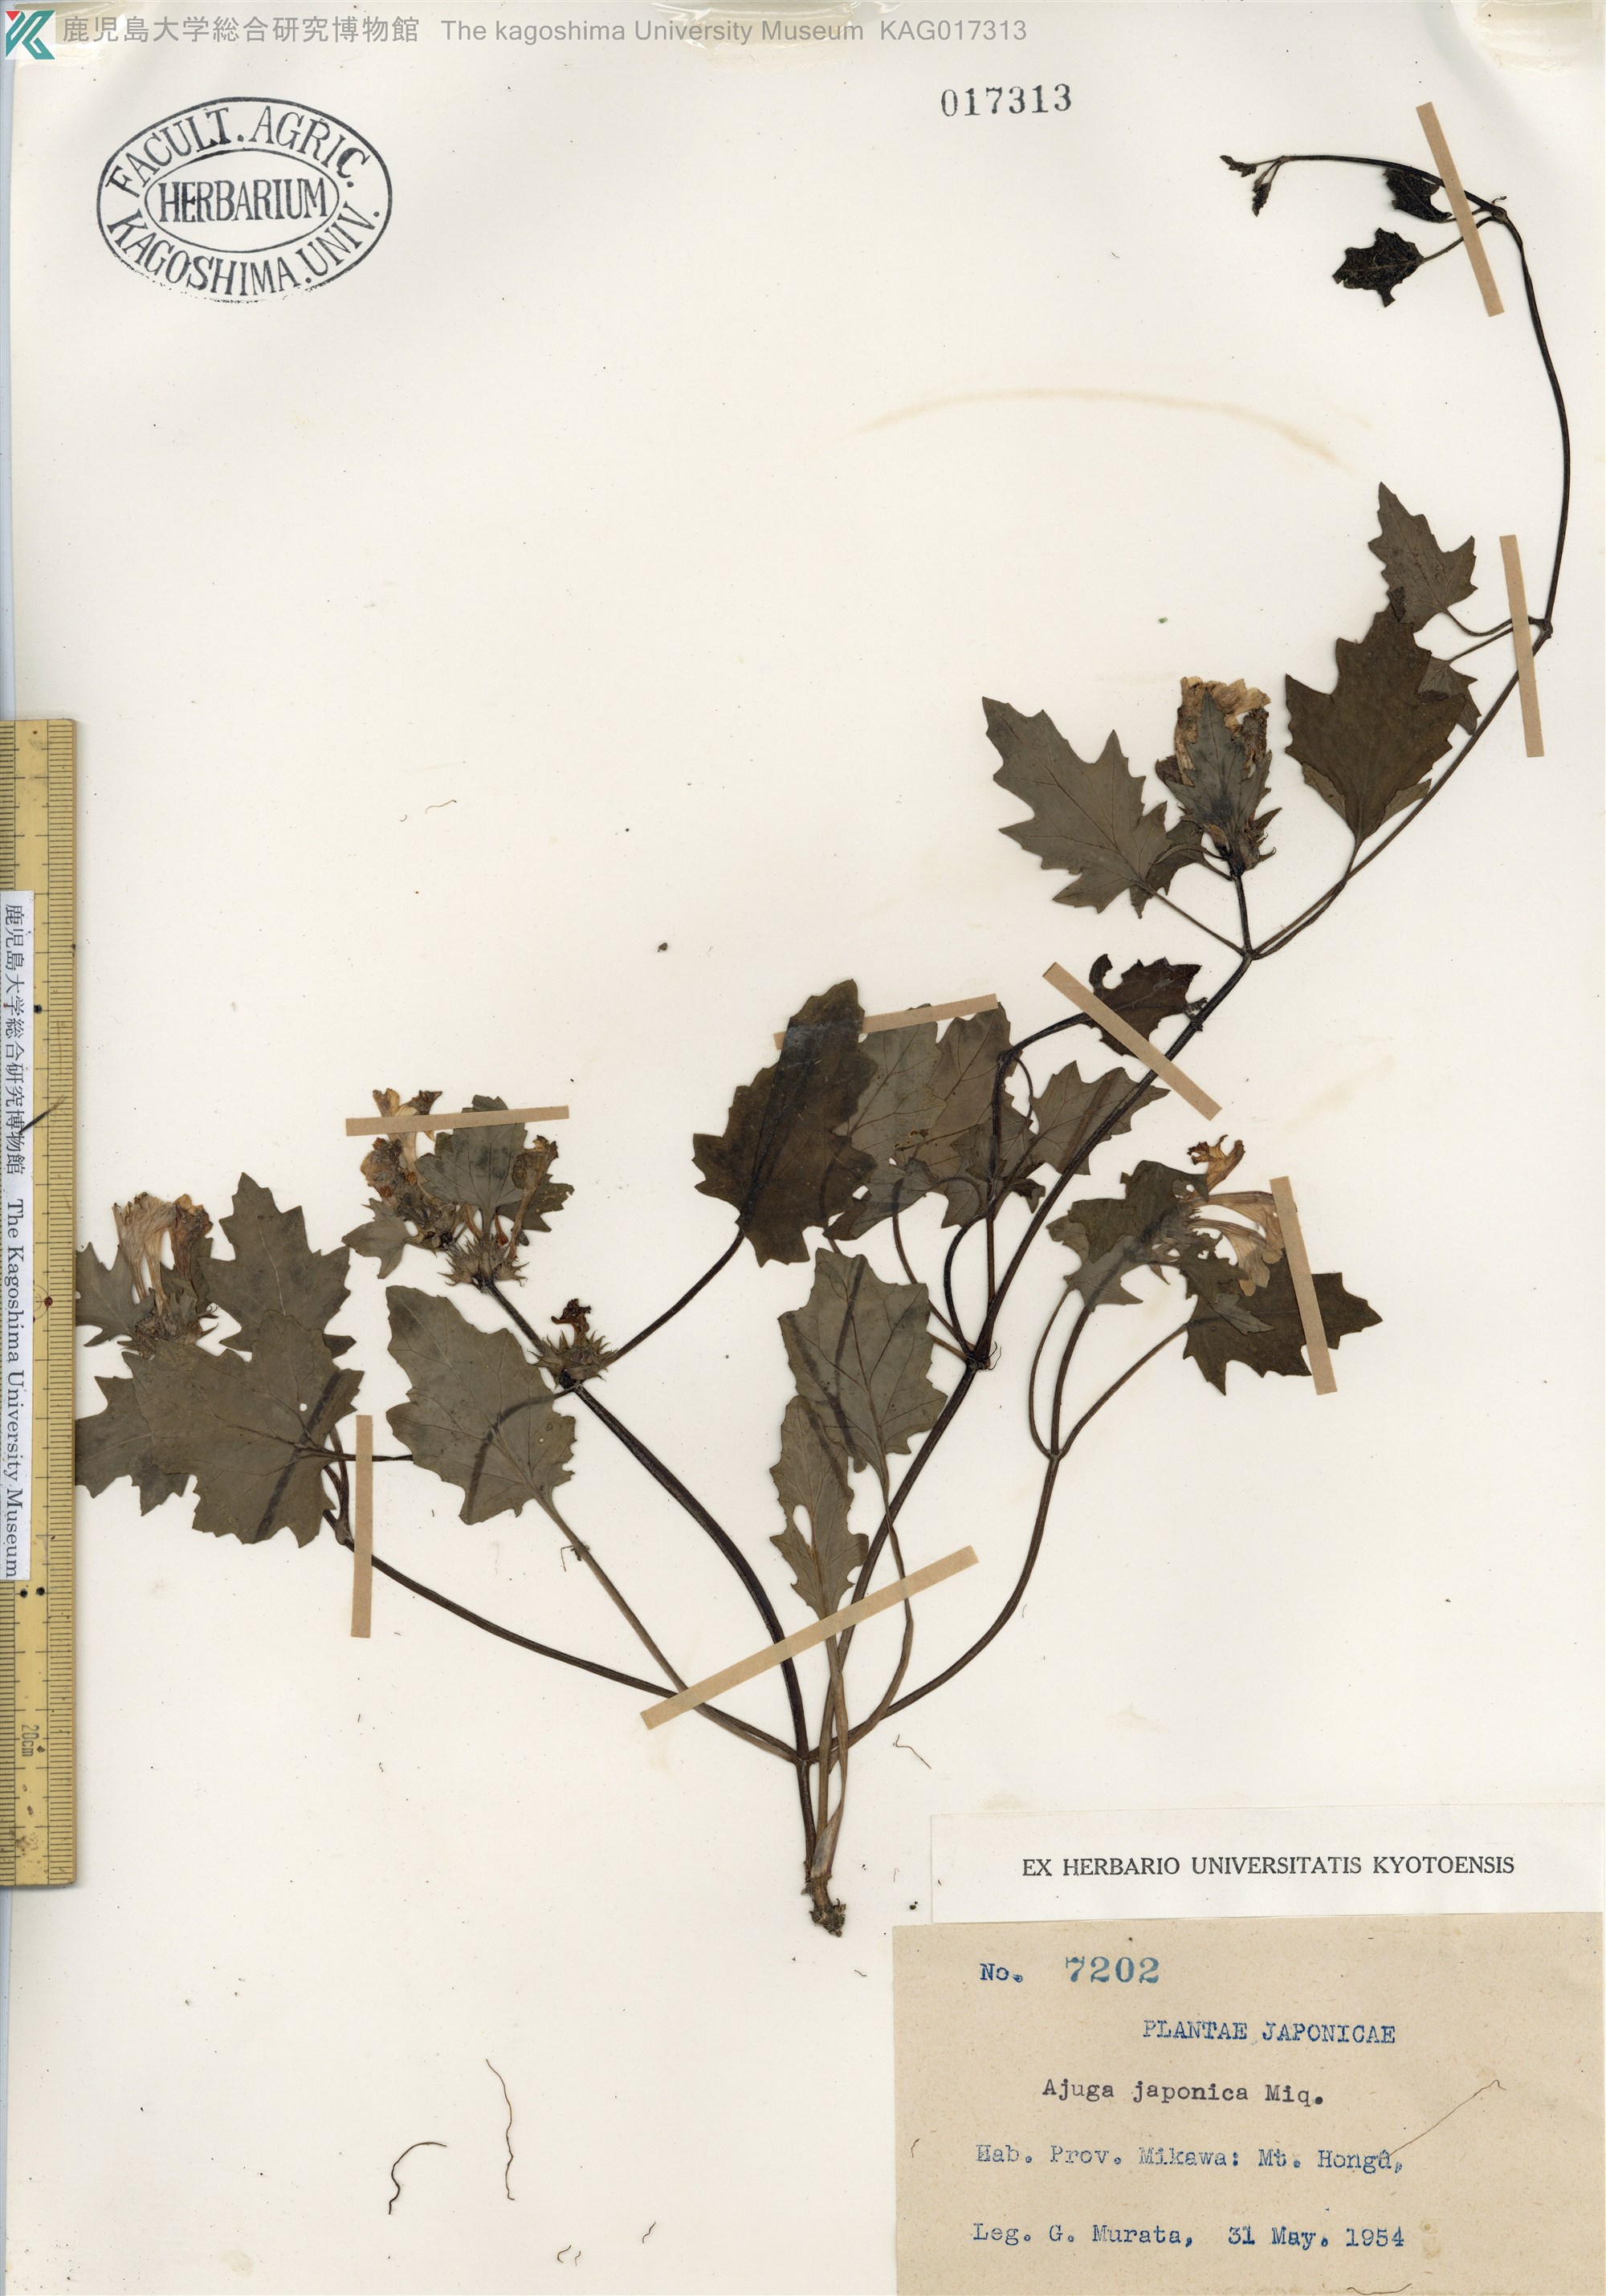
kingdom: Plantae
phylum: Tracheophyta
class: Magnoliopsida
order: Lamiales
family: Lamiaceae
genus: Ajuga
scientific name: Ajuga japonica
